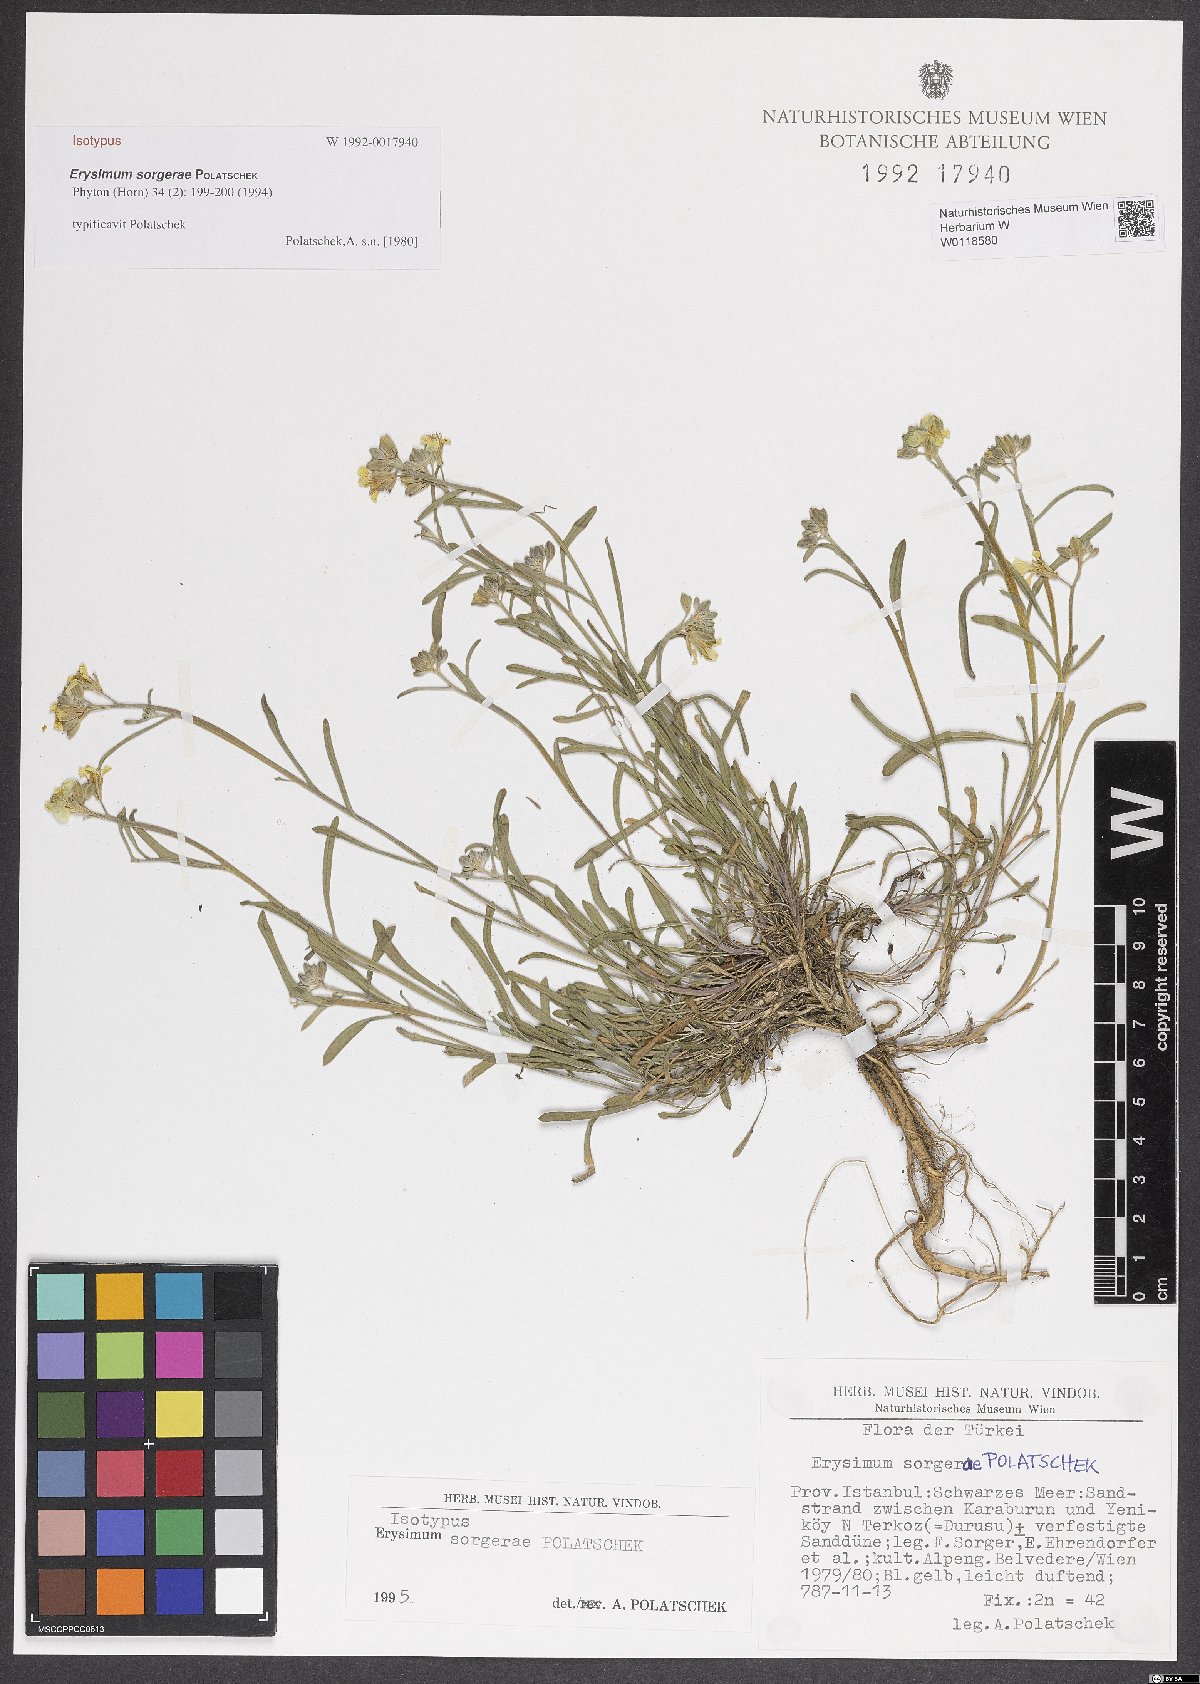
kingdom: Plantae
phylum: Tracheophyta
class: Magnoliopsida
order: Brassicales
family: Brassicaceae
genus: Erysimum
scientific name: Erysimum sorgerae
